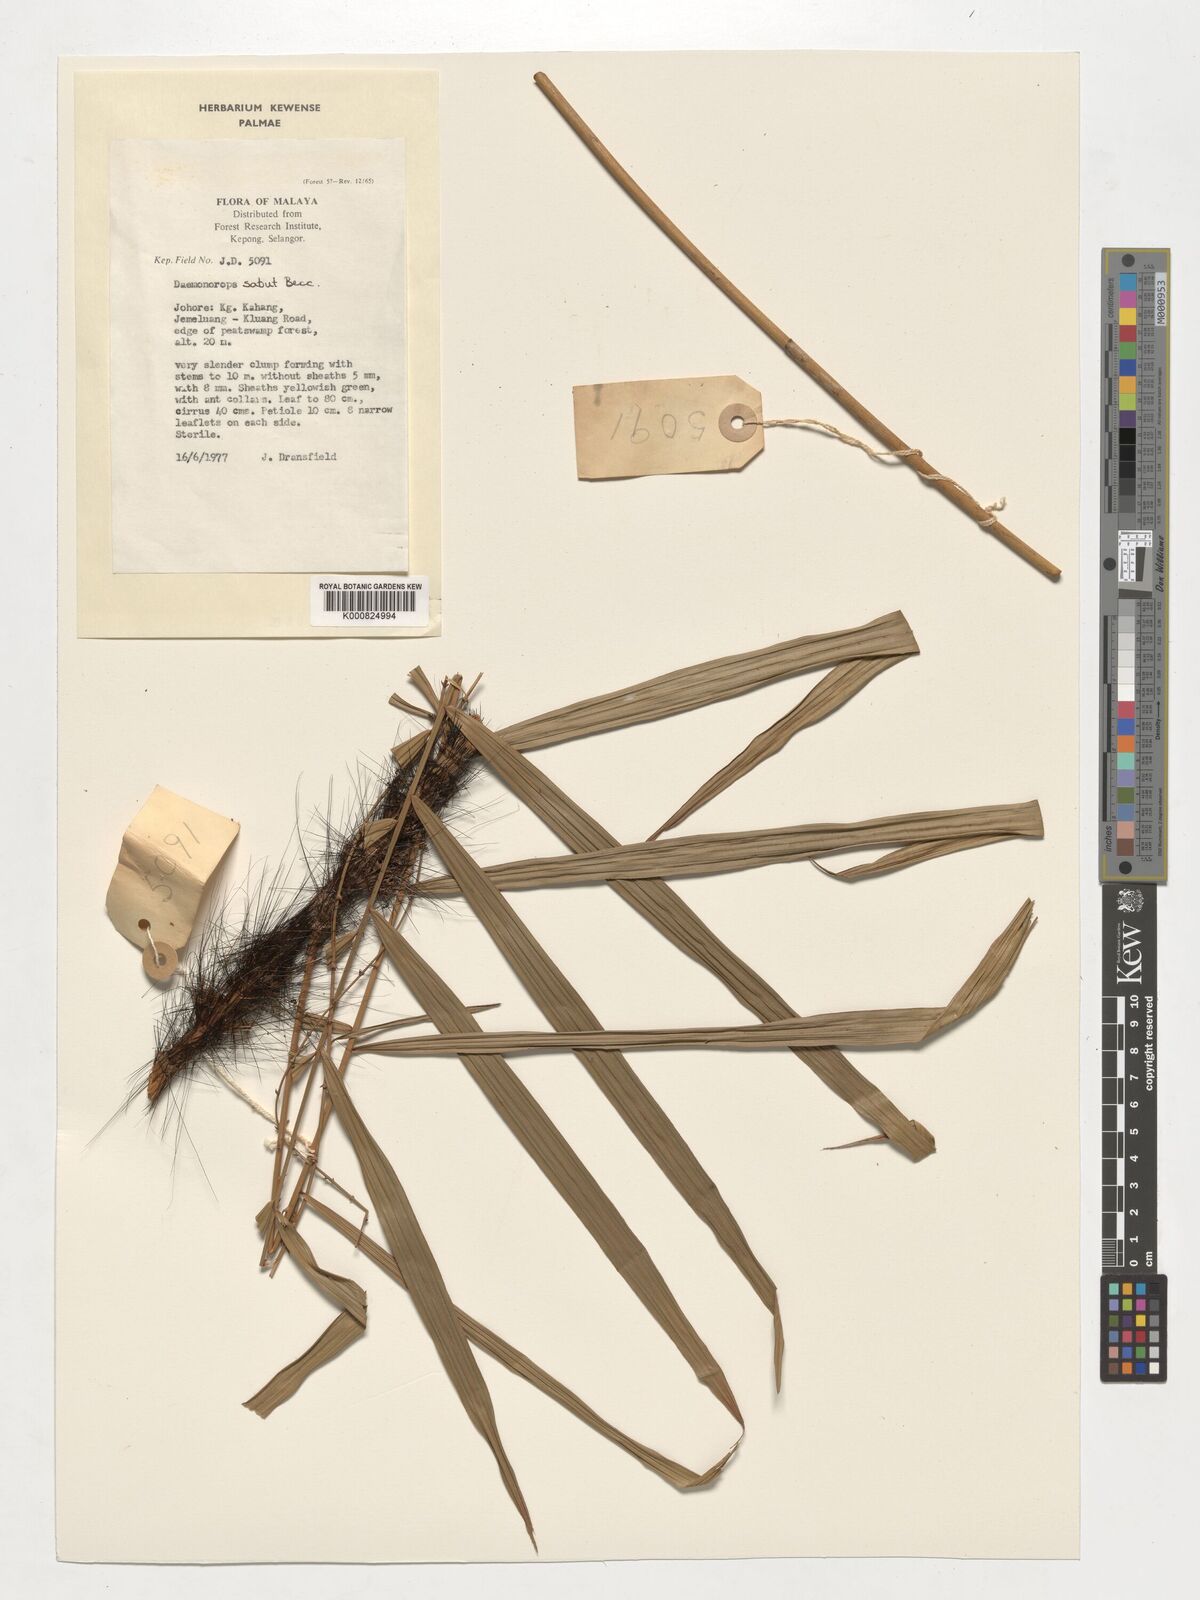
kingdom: Plantae
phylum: Tracheophyta
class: Liliopsida
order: Arecales
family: Arecaceae
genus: Calamus
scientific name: Calamus crinitus
